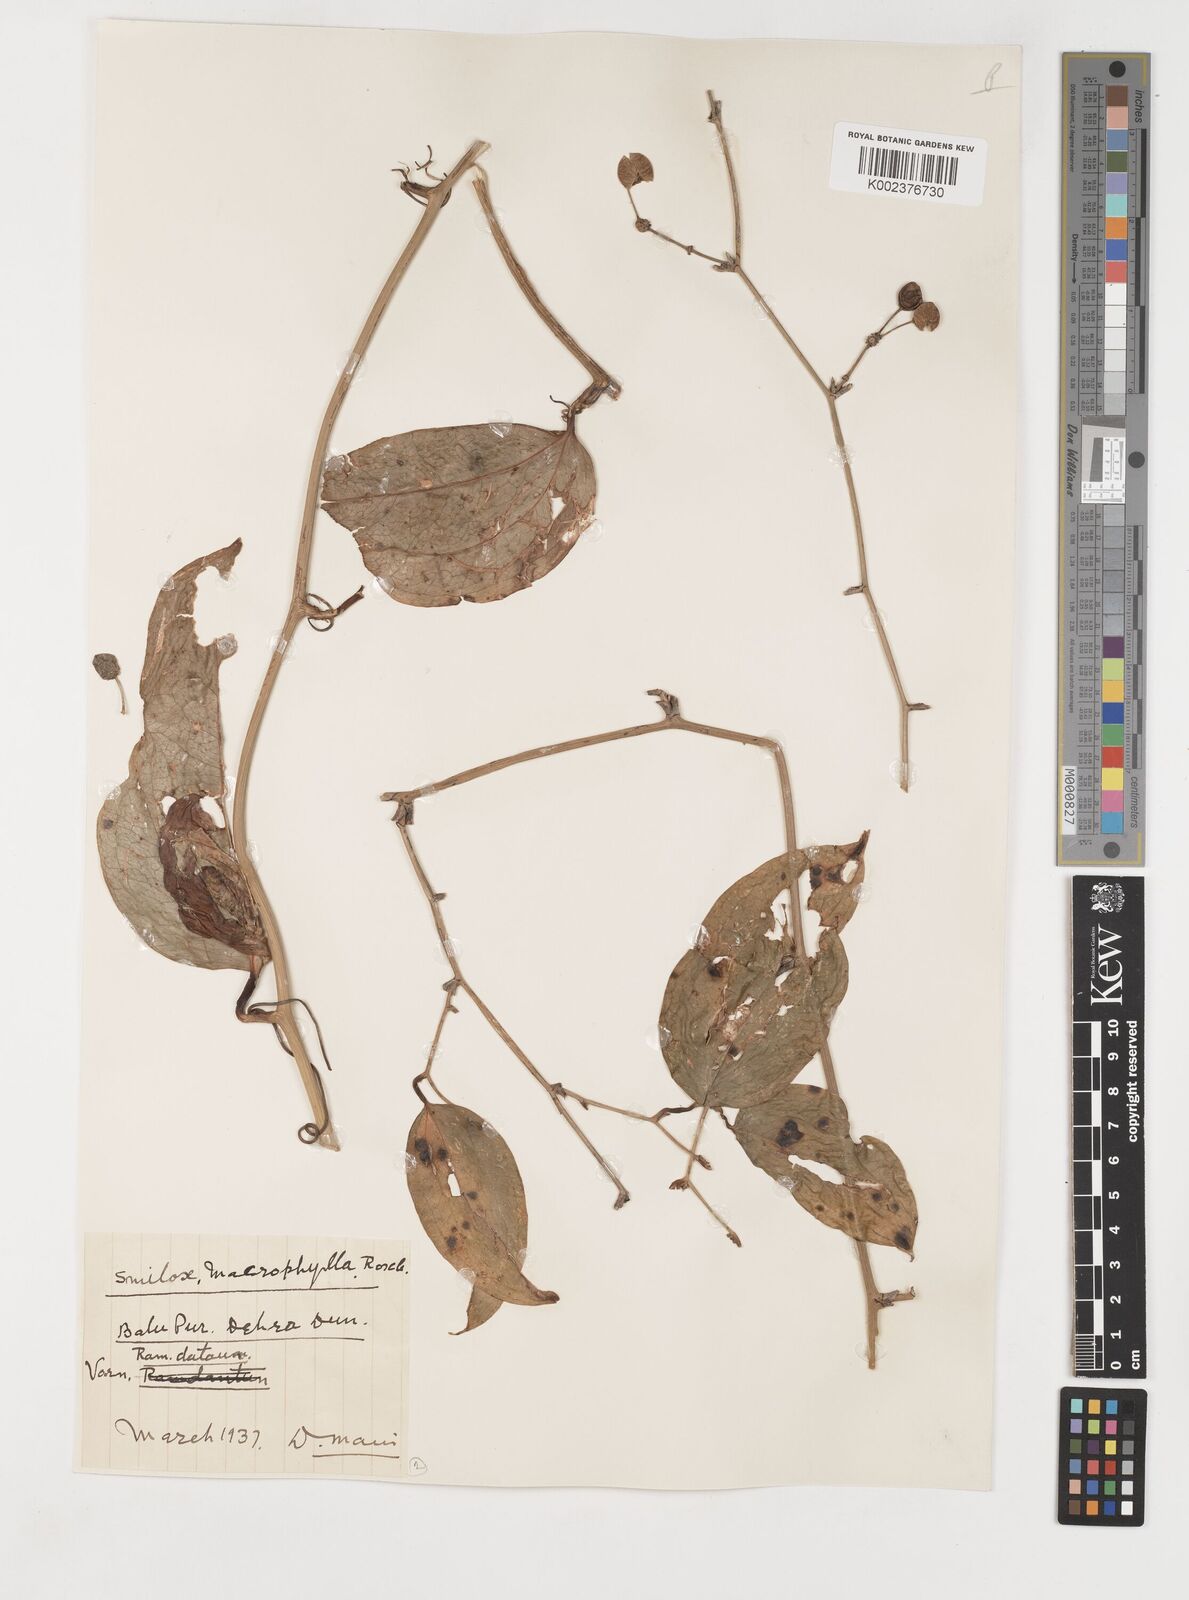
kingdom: Plantae
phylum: Tracheophyta
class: Liliopsida
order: Liliales
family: Smilacaceae
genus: Smilax
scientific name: Smilax ovalifolia
